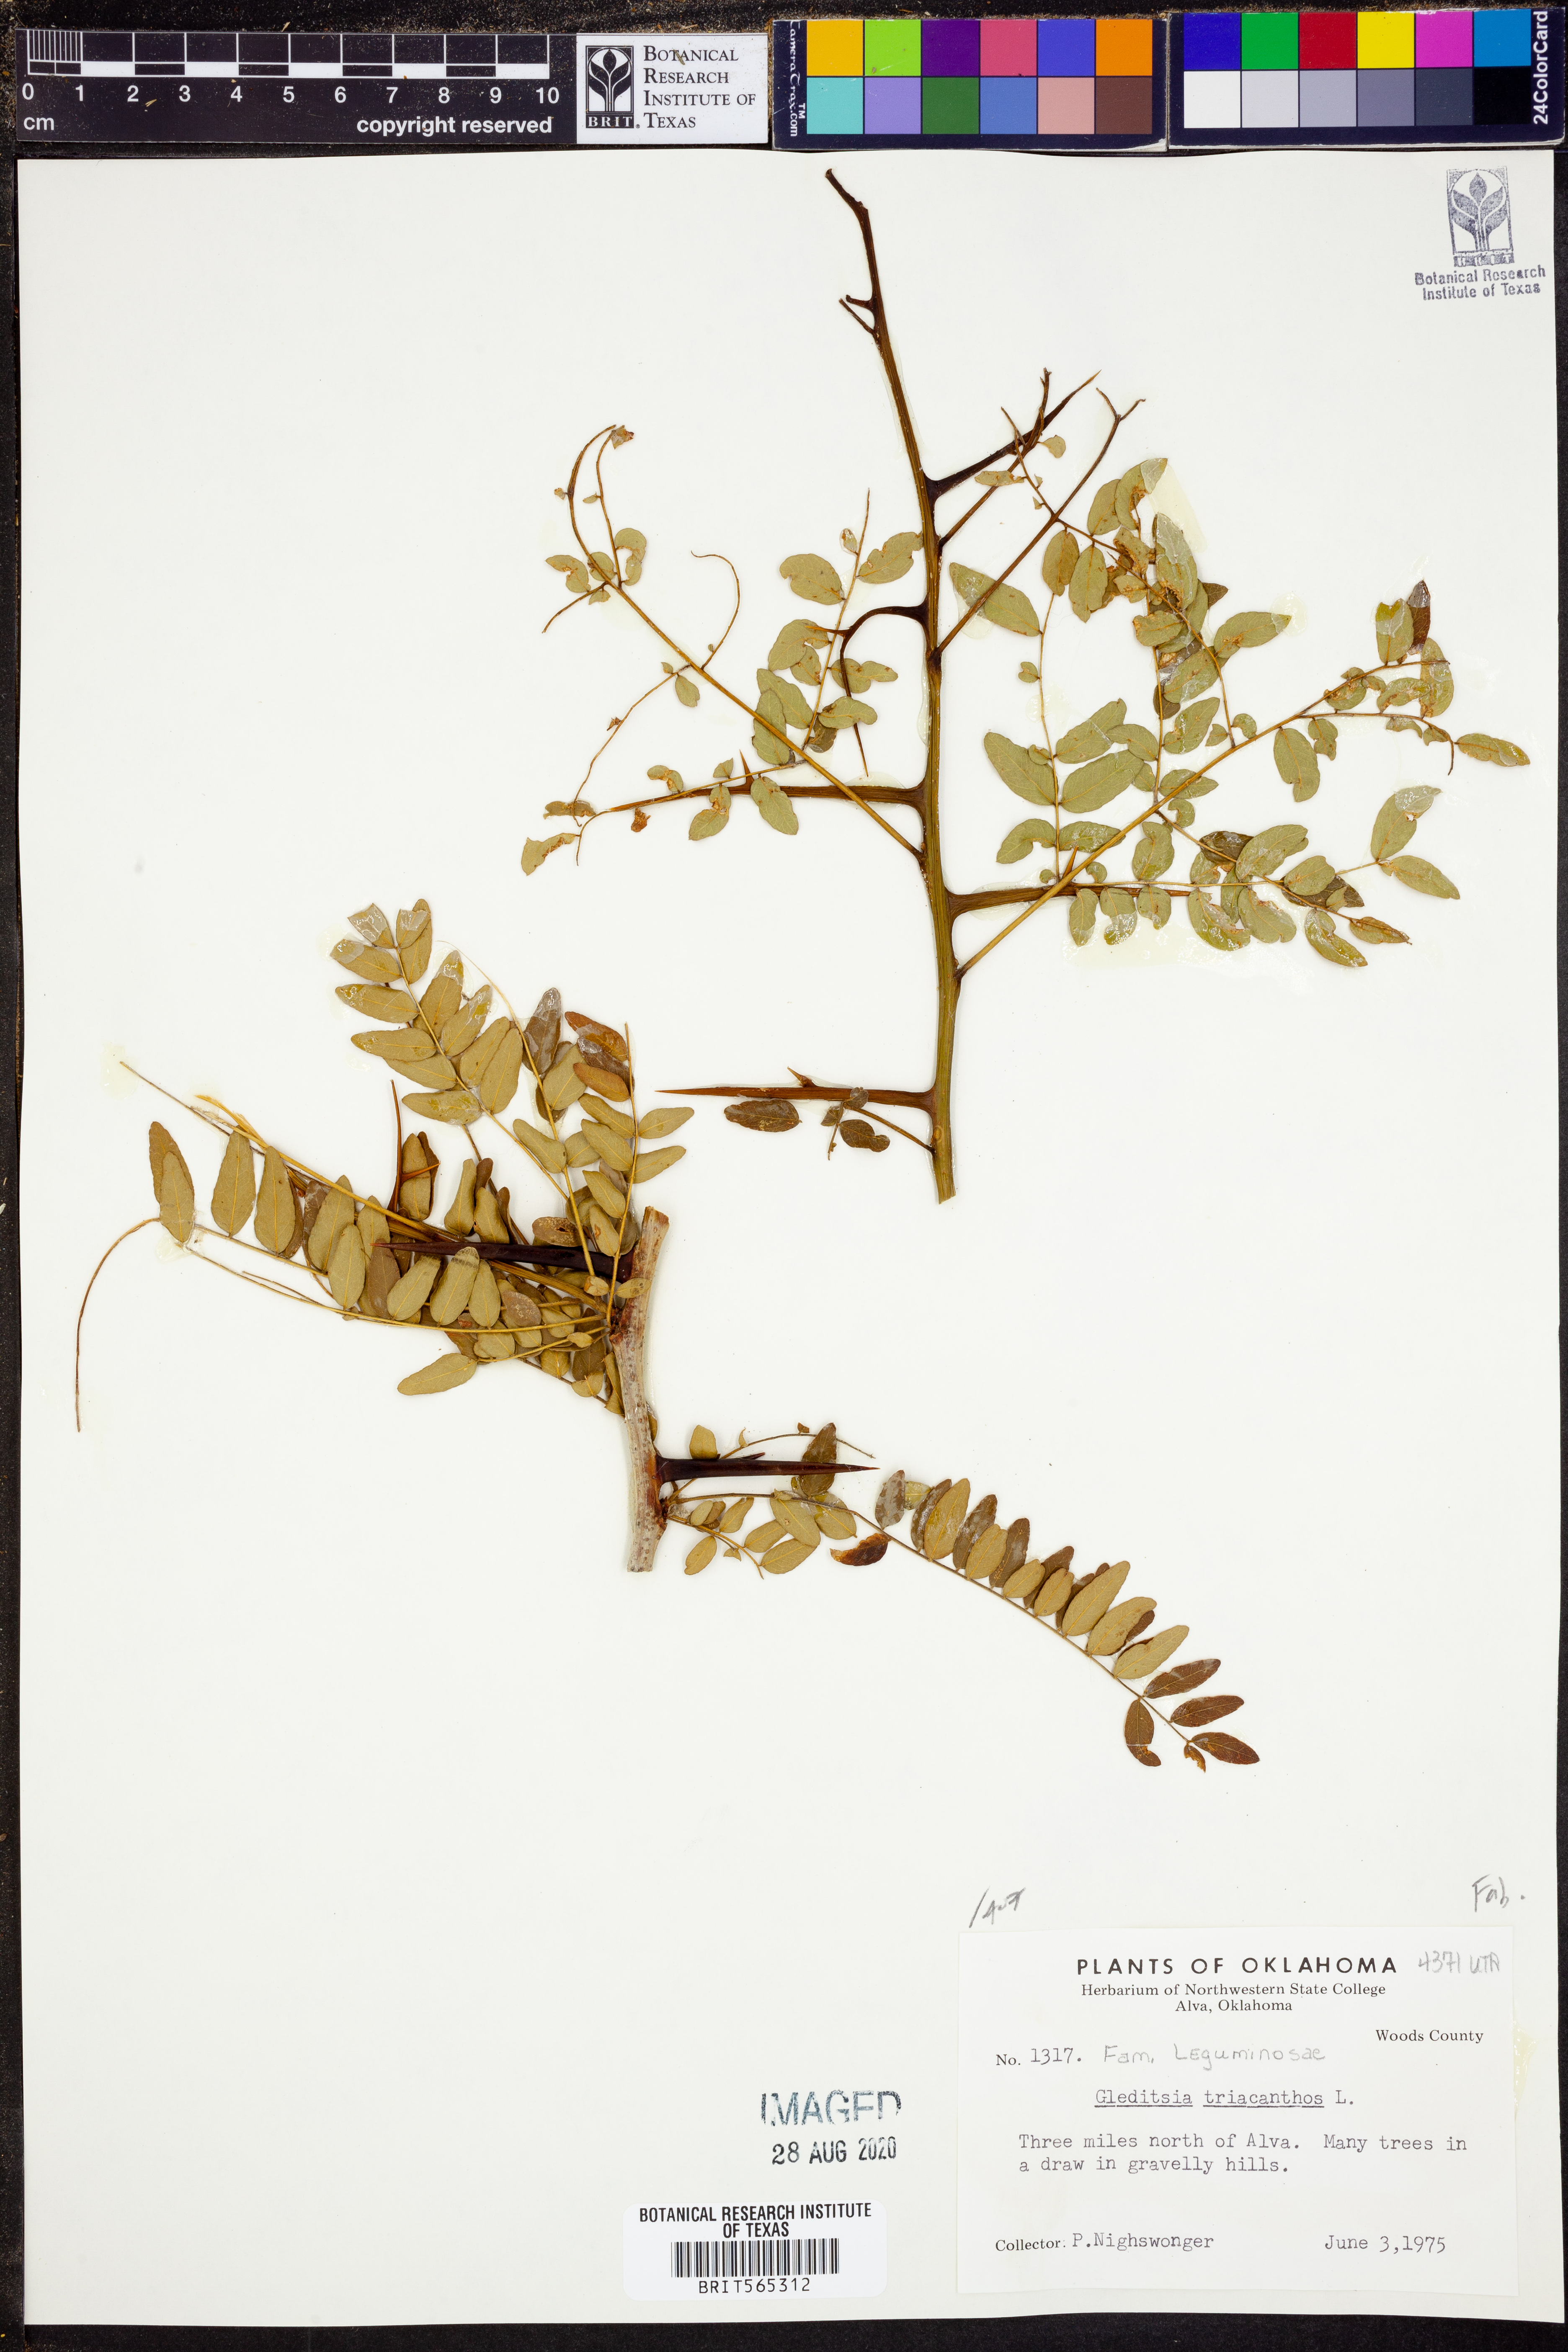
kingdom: Plantae
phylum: Tracheophyta
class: Magnoliopsida
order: Fabales
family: Fabaceae
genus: Gleditsia
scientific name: Gleditsia triacanthos
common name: Common honeylocust
